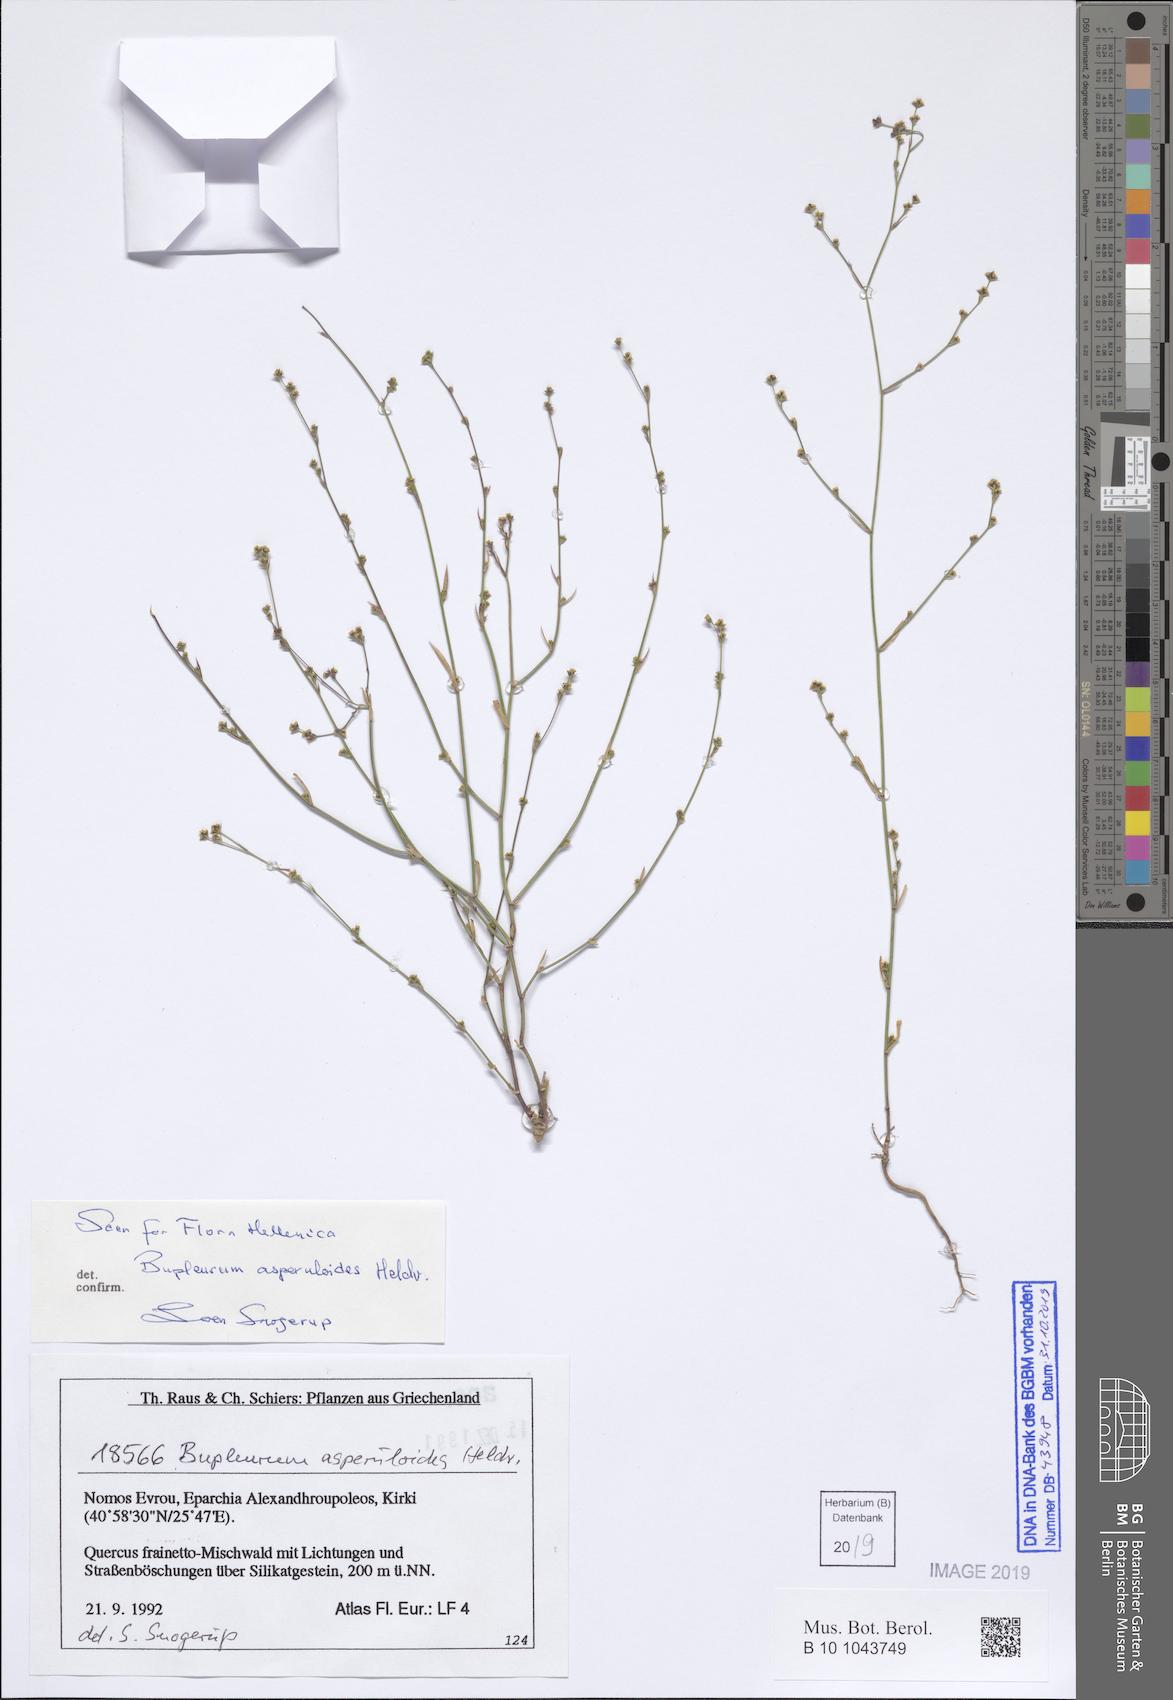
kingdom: Plantae
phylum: Tracheophyta
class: Magnoliopsida
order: Apiales
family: Apiaceae
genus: Bupleurum
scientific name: Bupleurum asperuloides
